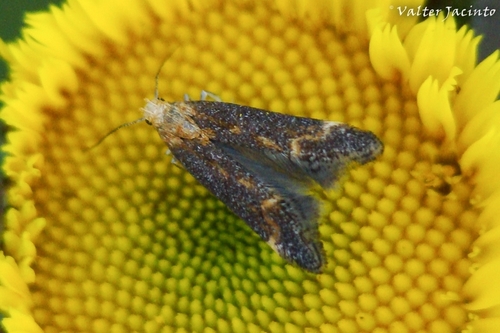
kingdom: Animalia
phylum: Arthropoda
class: Insecta
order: Lepidoptera
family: Gelechiidae
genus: Apodia
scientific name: Apodia bifractella
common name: Dark fleabane neb
